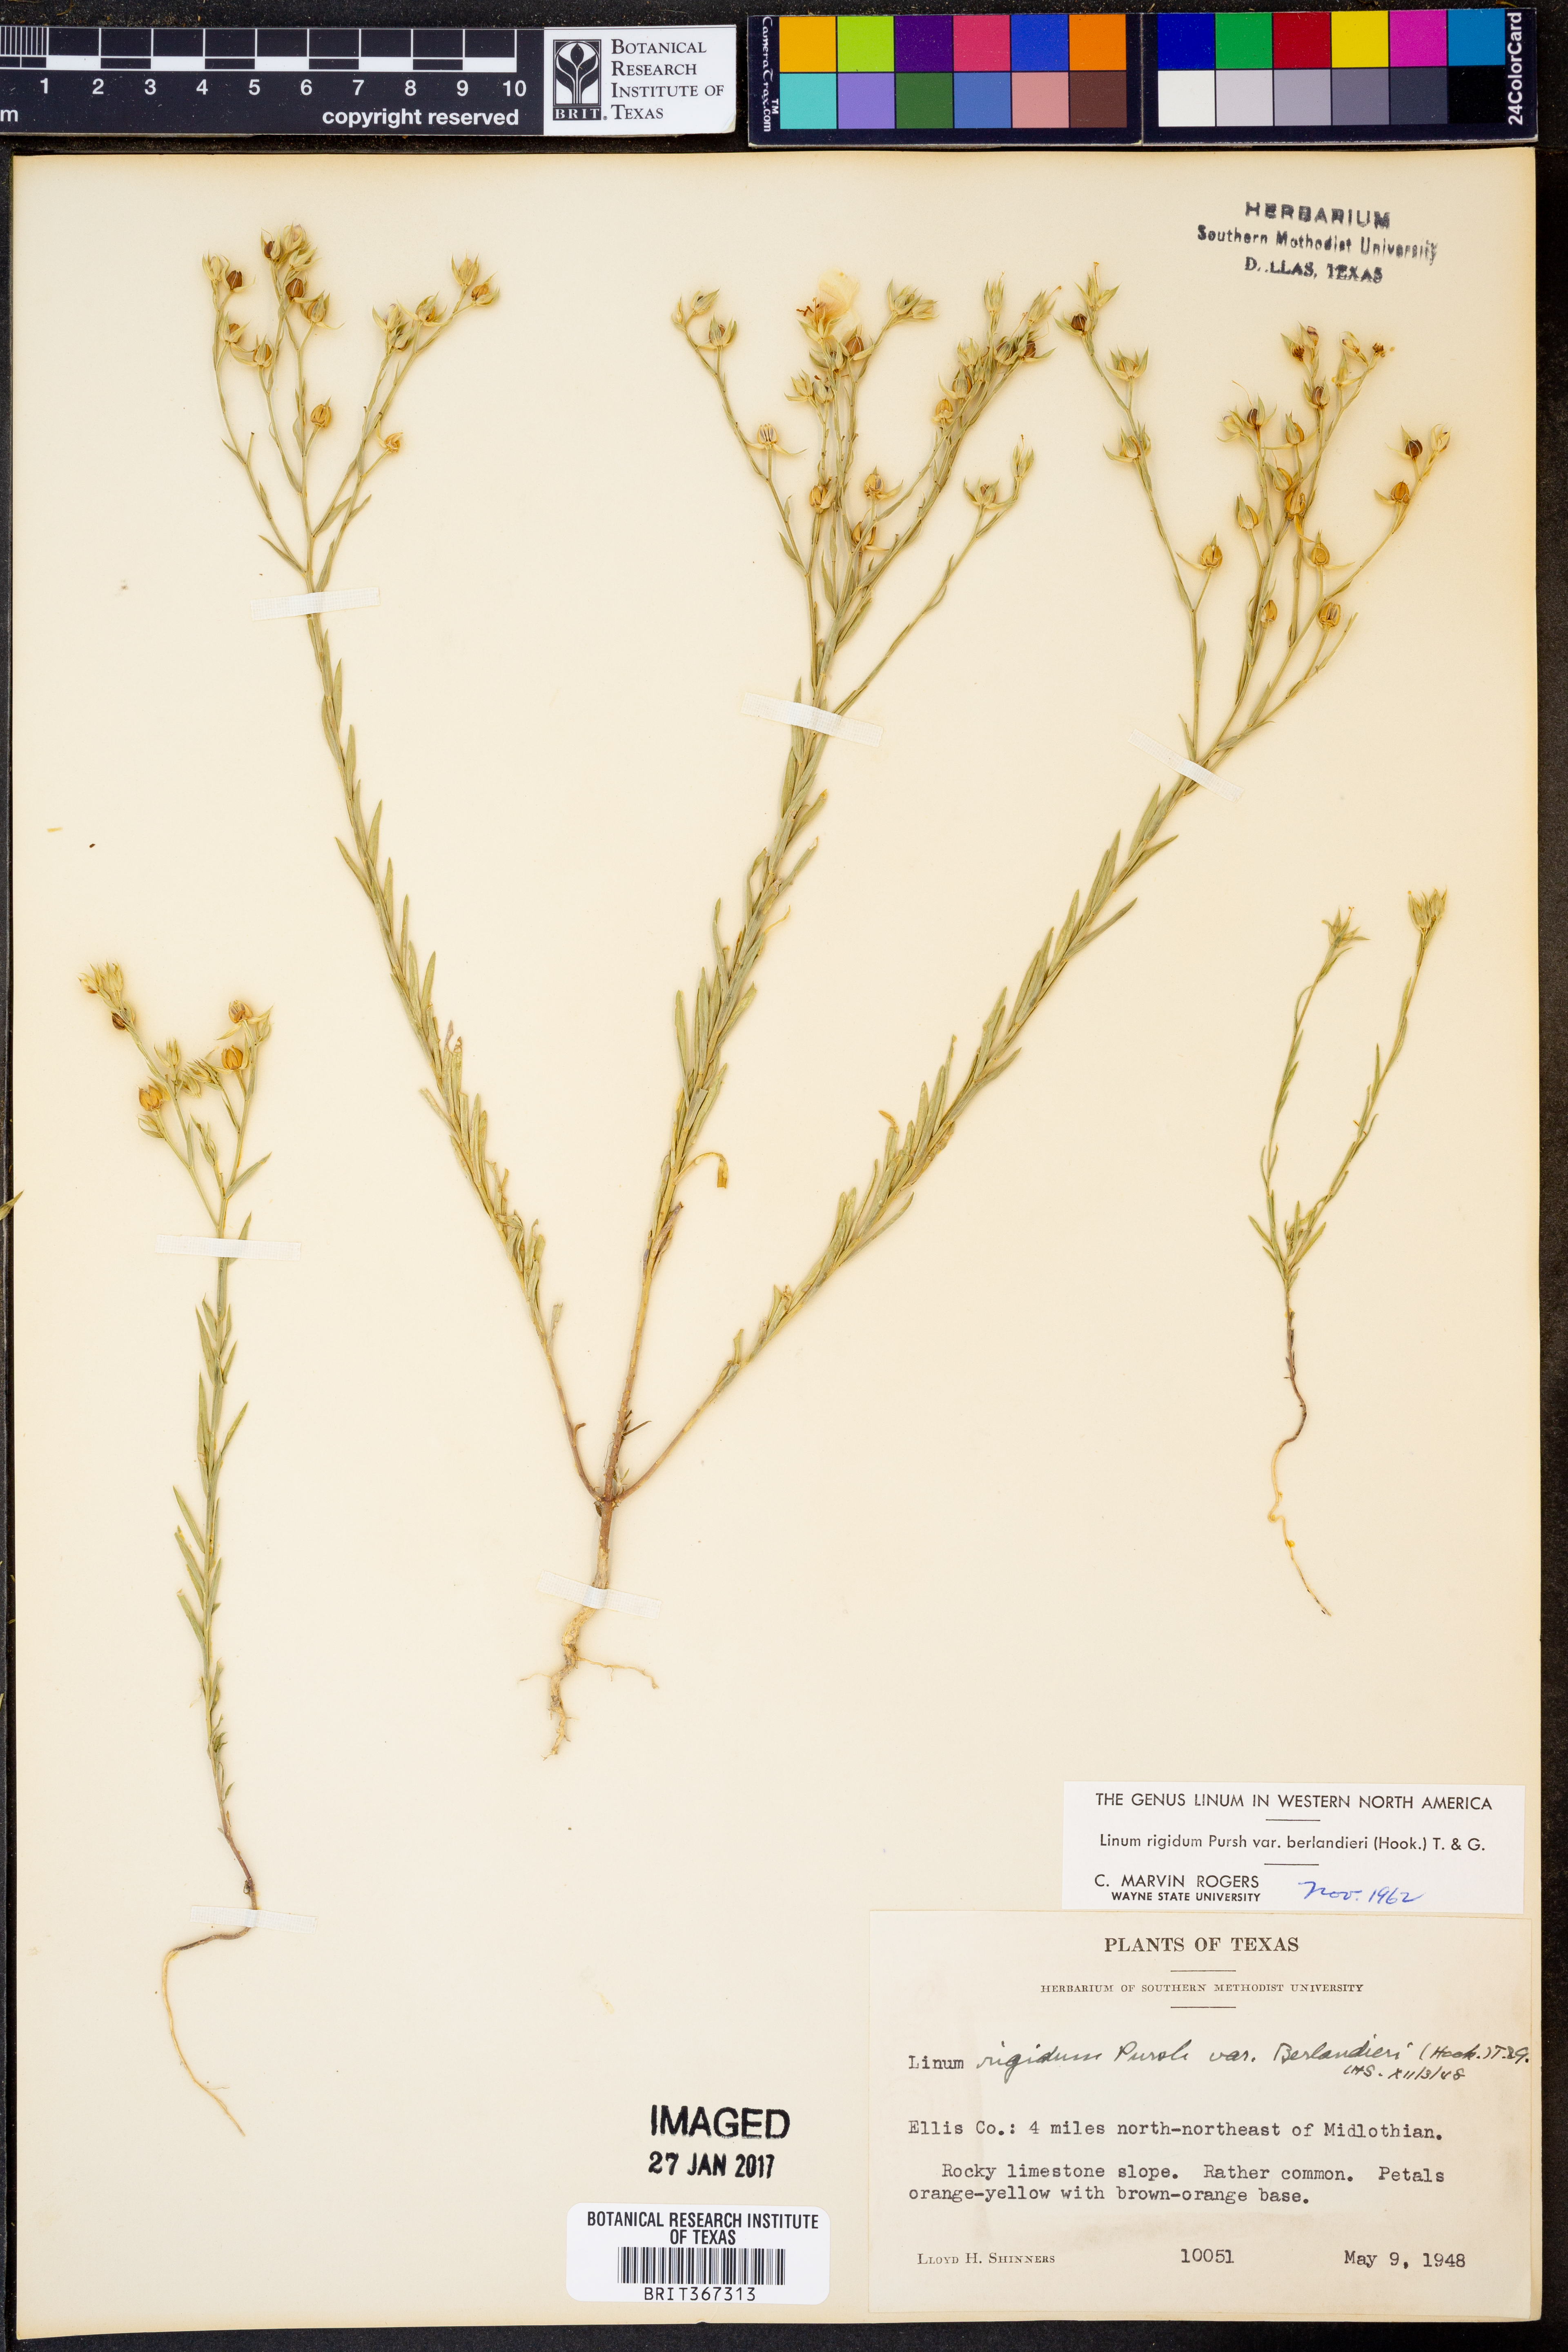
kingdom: Plantae
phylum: Tracheophyta
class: Magnoliopsida
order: Malpighiales
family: Linaceae
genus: Linum
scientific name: Linum berlandieri
